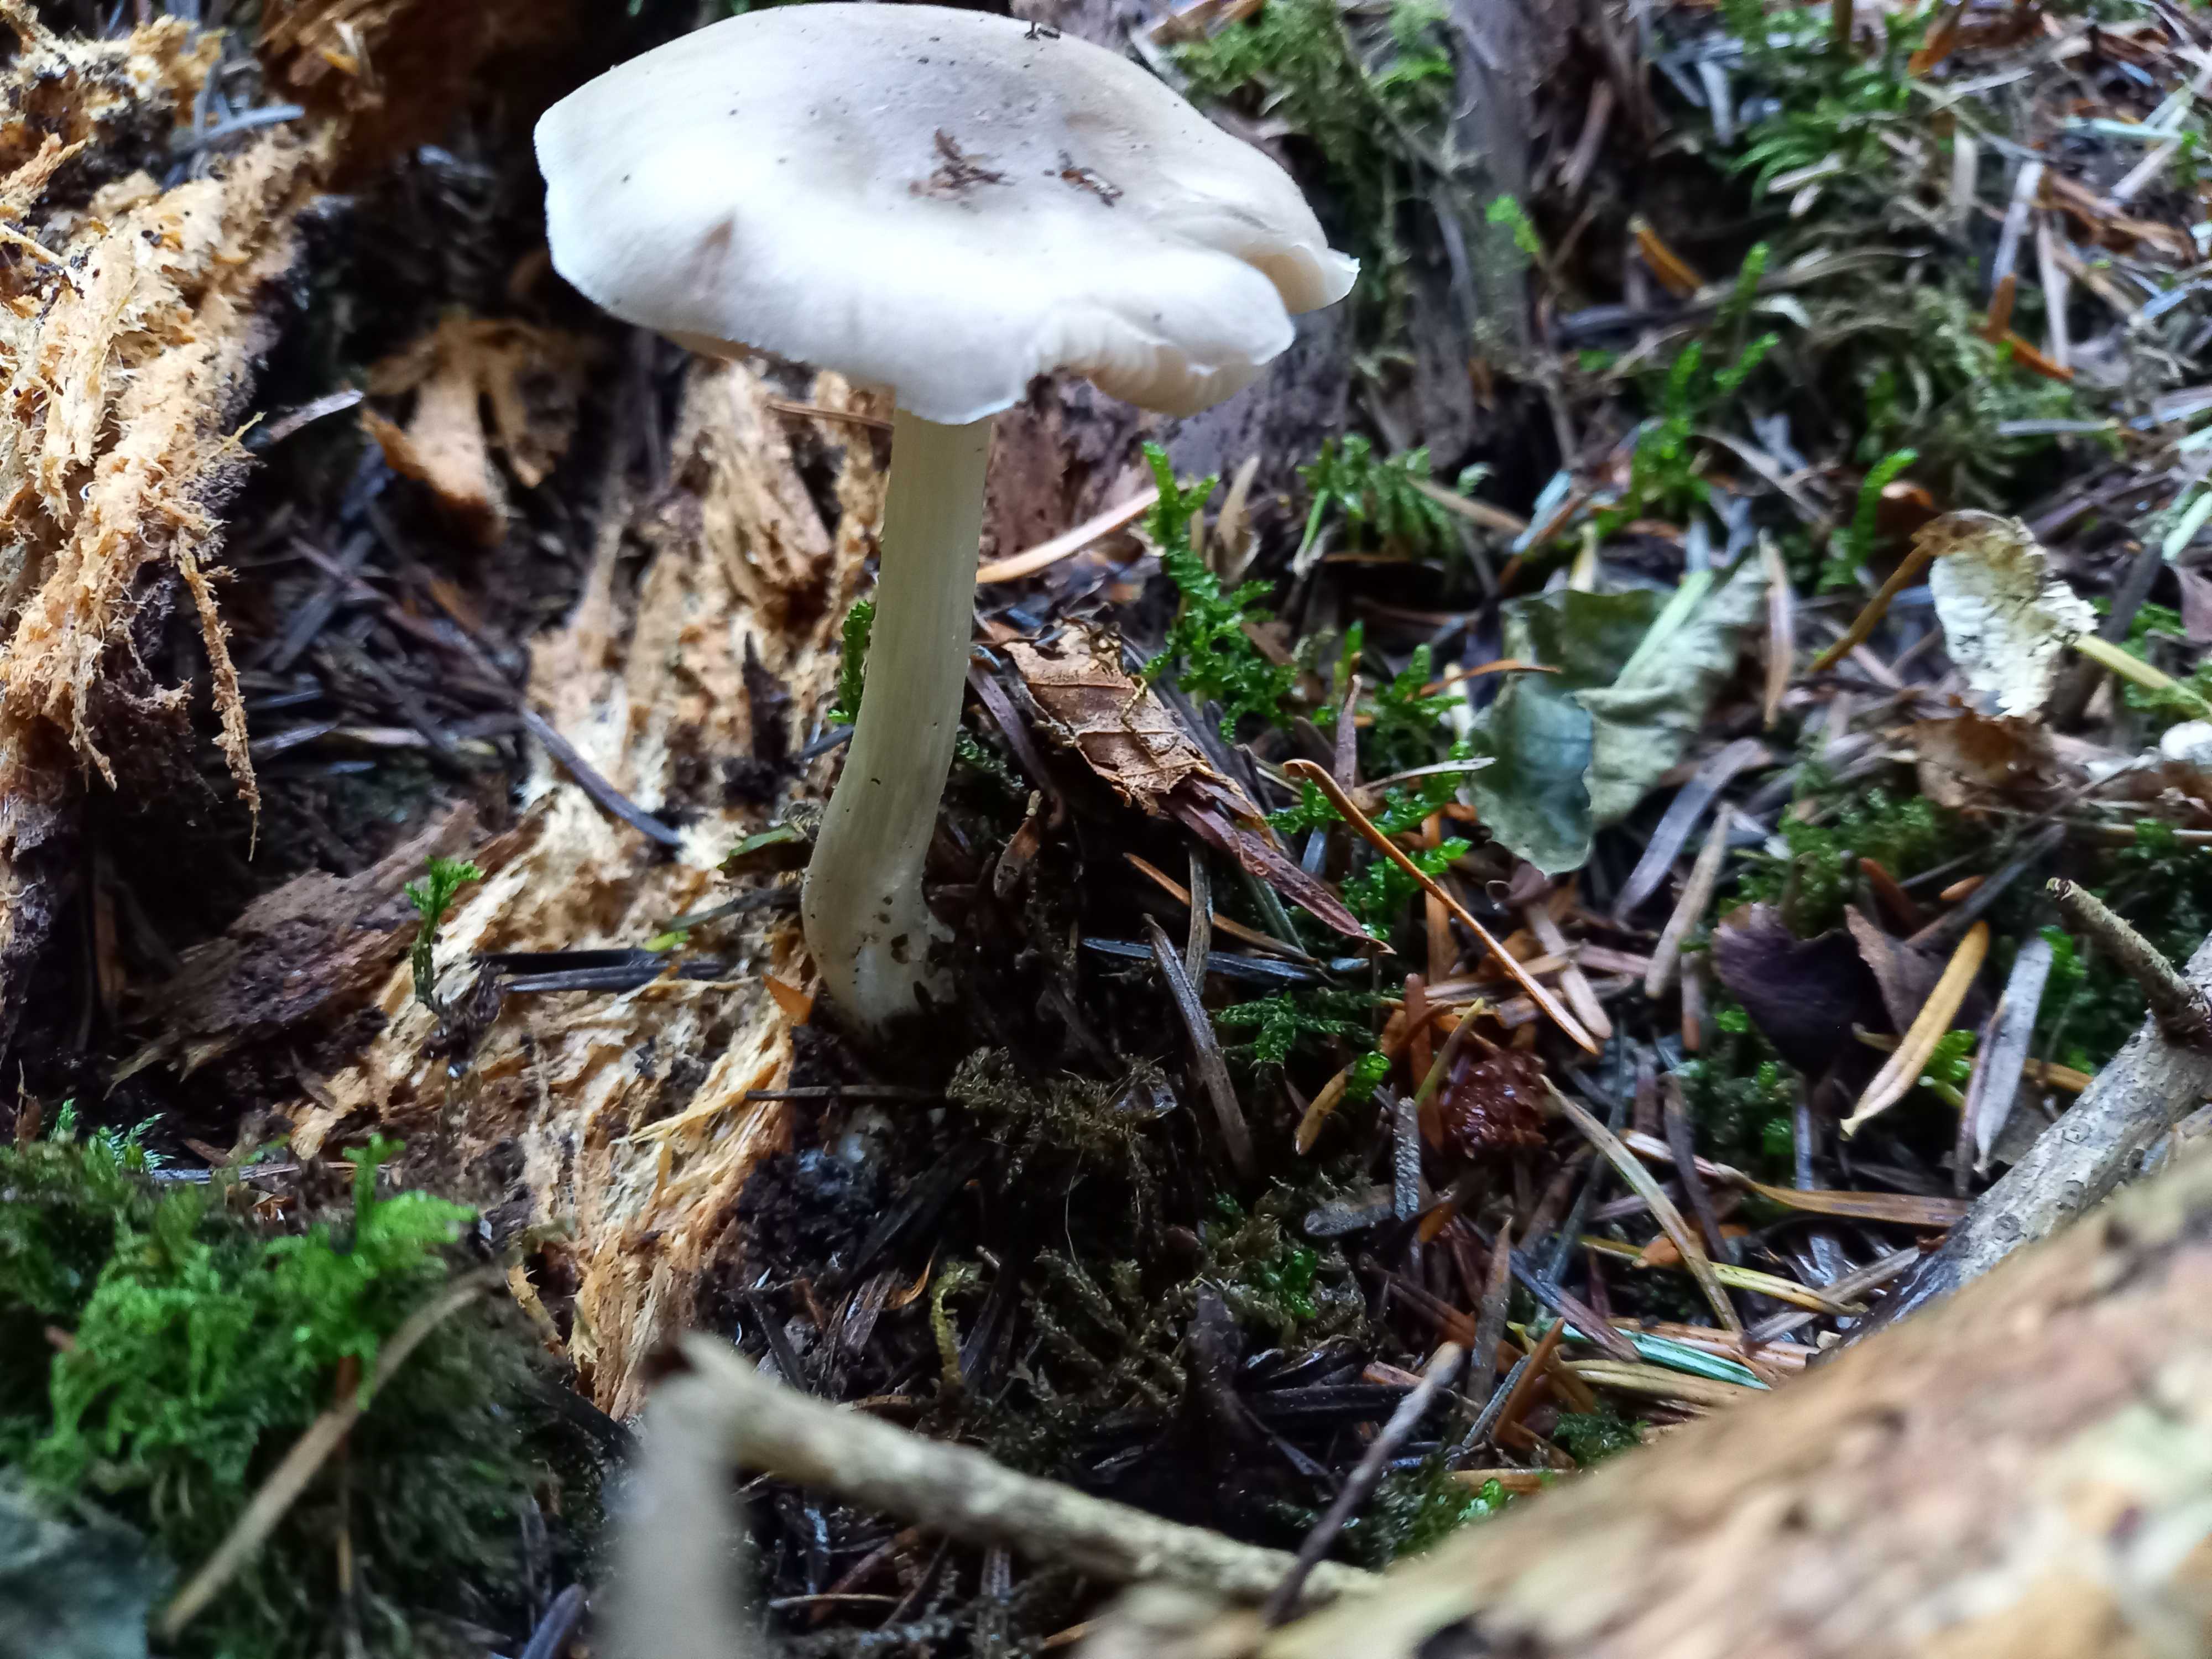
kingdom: Fungi
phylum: Basidiomycota
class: Agaricomycetes
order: Agaricales
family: Pluteaceae
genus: Pluteus
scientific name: Pluteus salicinus
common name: stiv skærmhat
